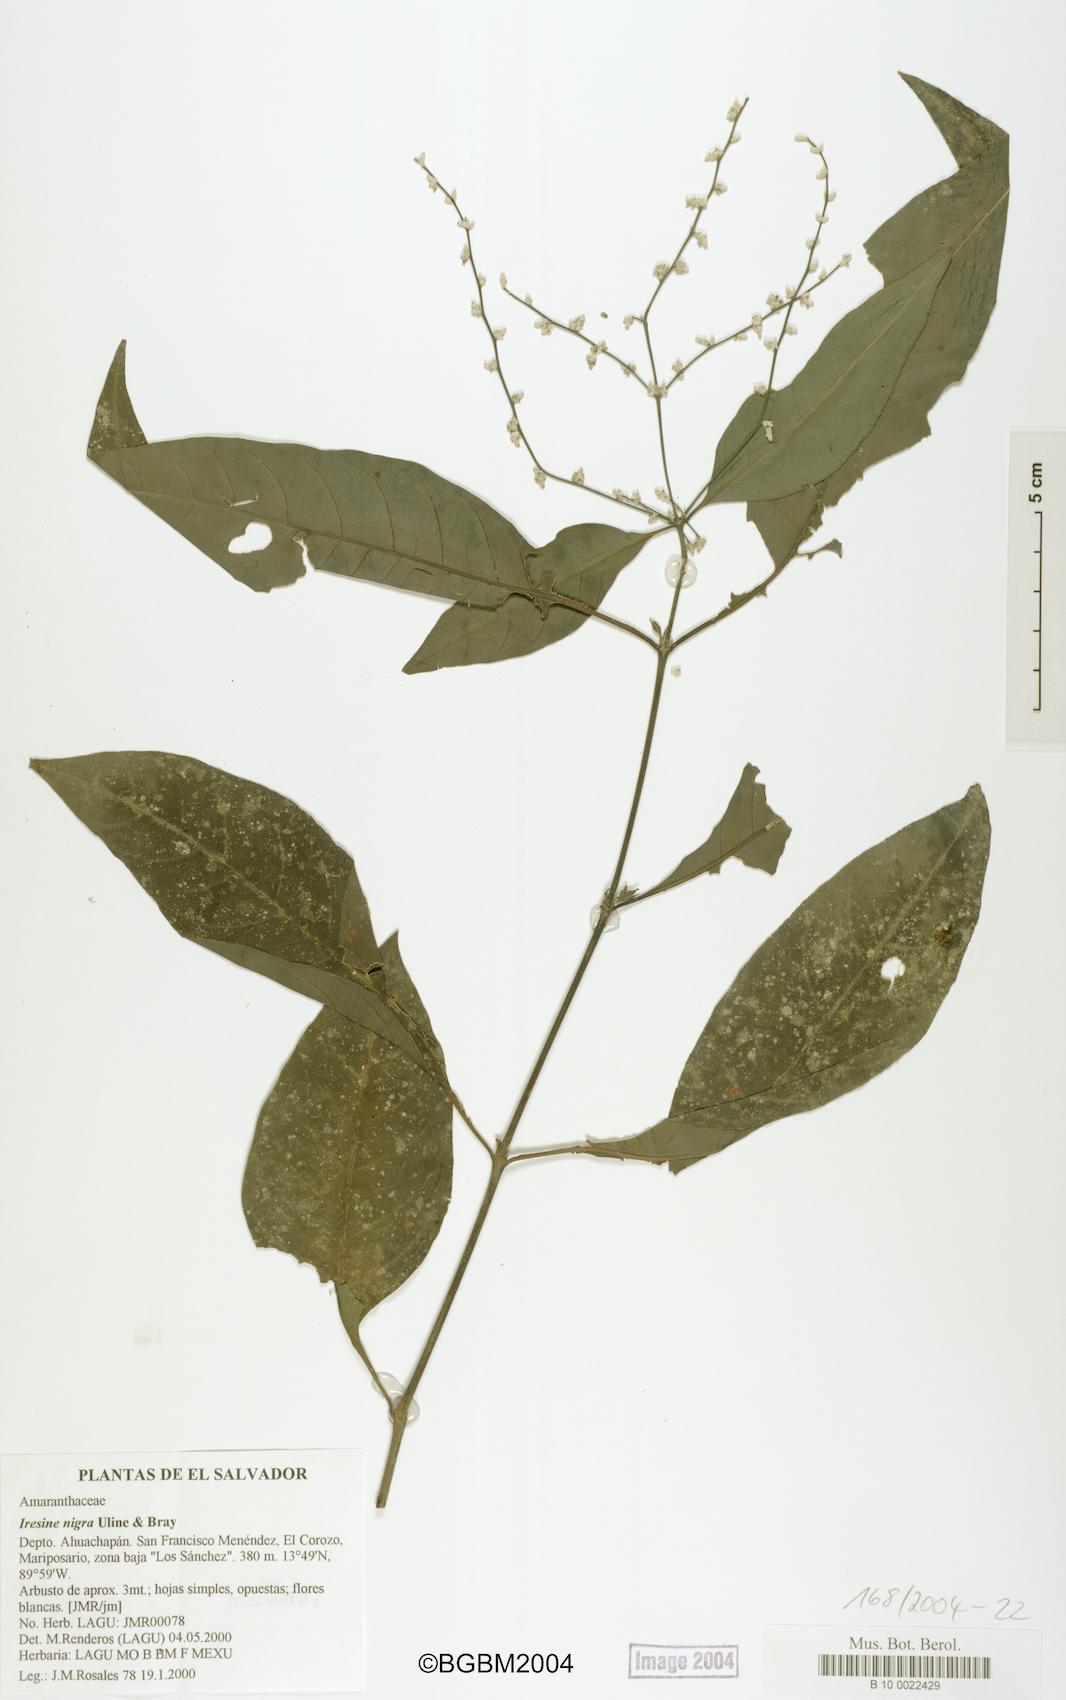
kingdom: Plantae
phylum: Tracheophyta
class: Magnoliopsida
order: Caryophyllales
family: Amaranthaceae
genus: Iresine
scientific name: Iresine nigra
